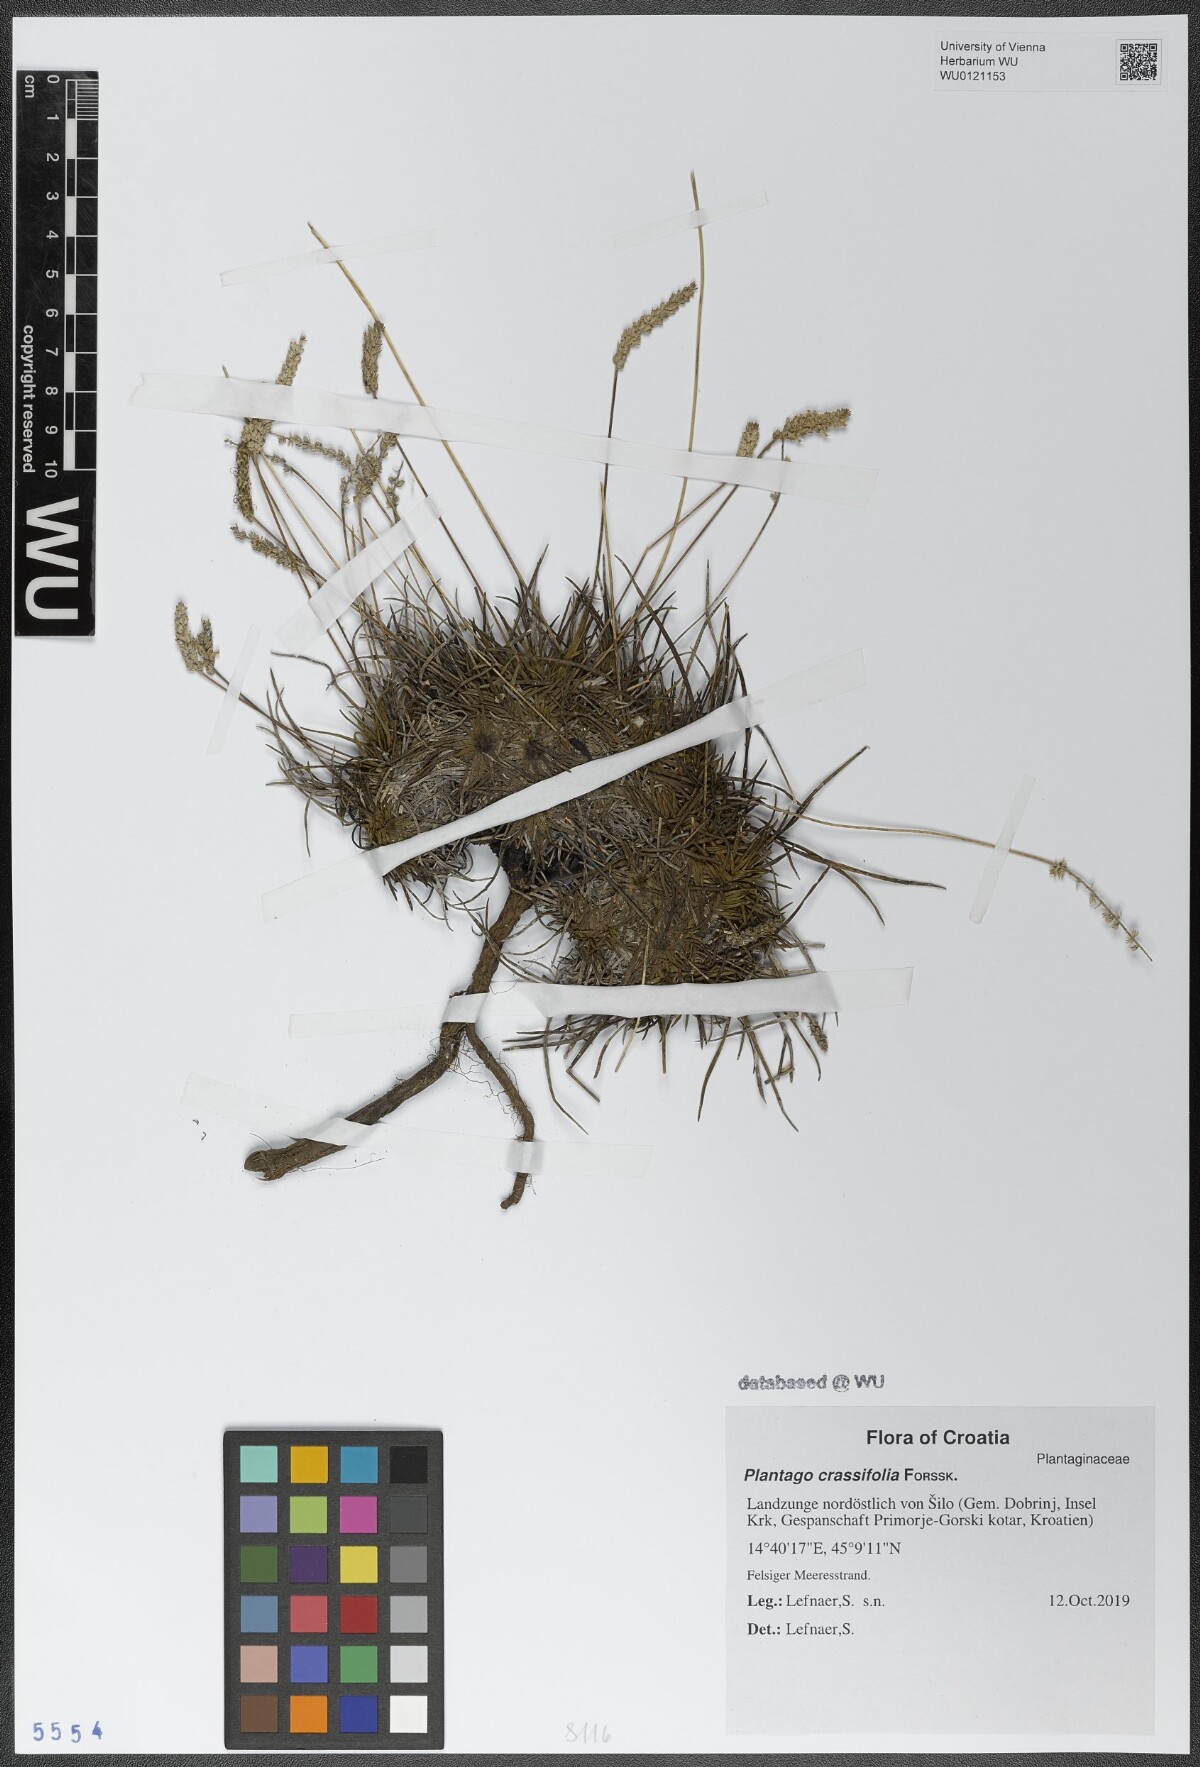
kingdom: Plantae
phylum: Tracheophyta
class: Magnoliopsida
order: Lamiales
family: Plantaginaceae
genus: Plantago
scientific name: Plantago crassifolia
